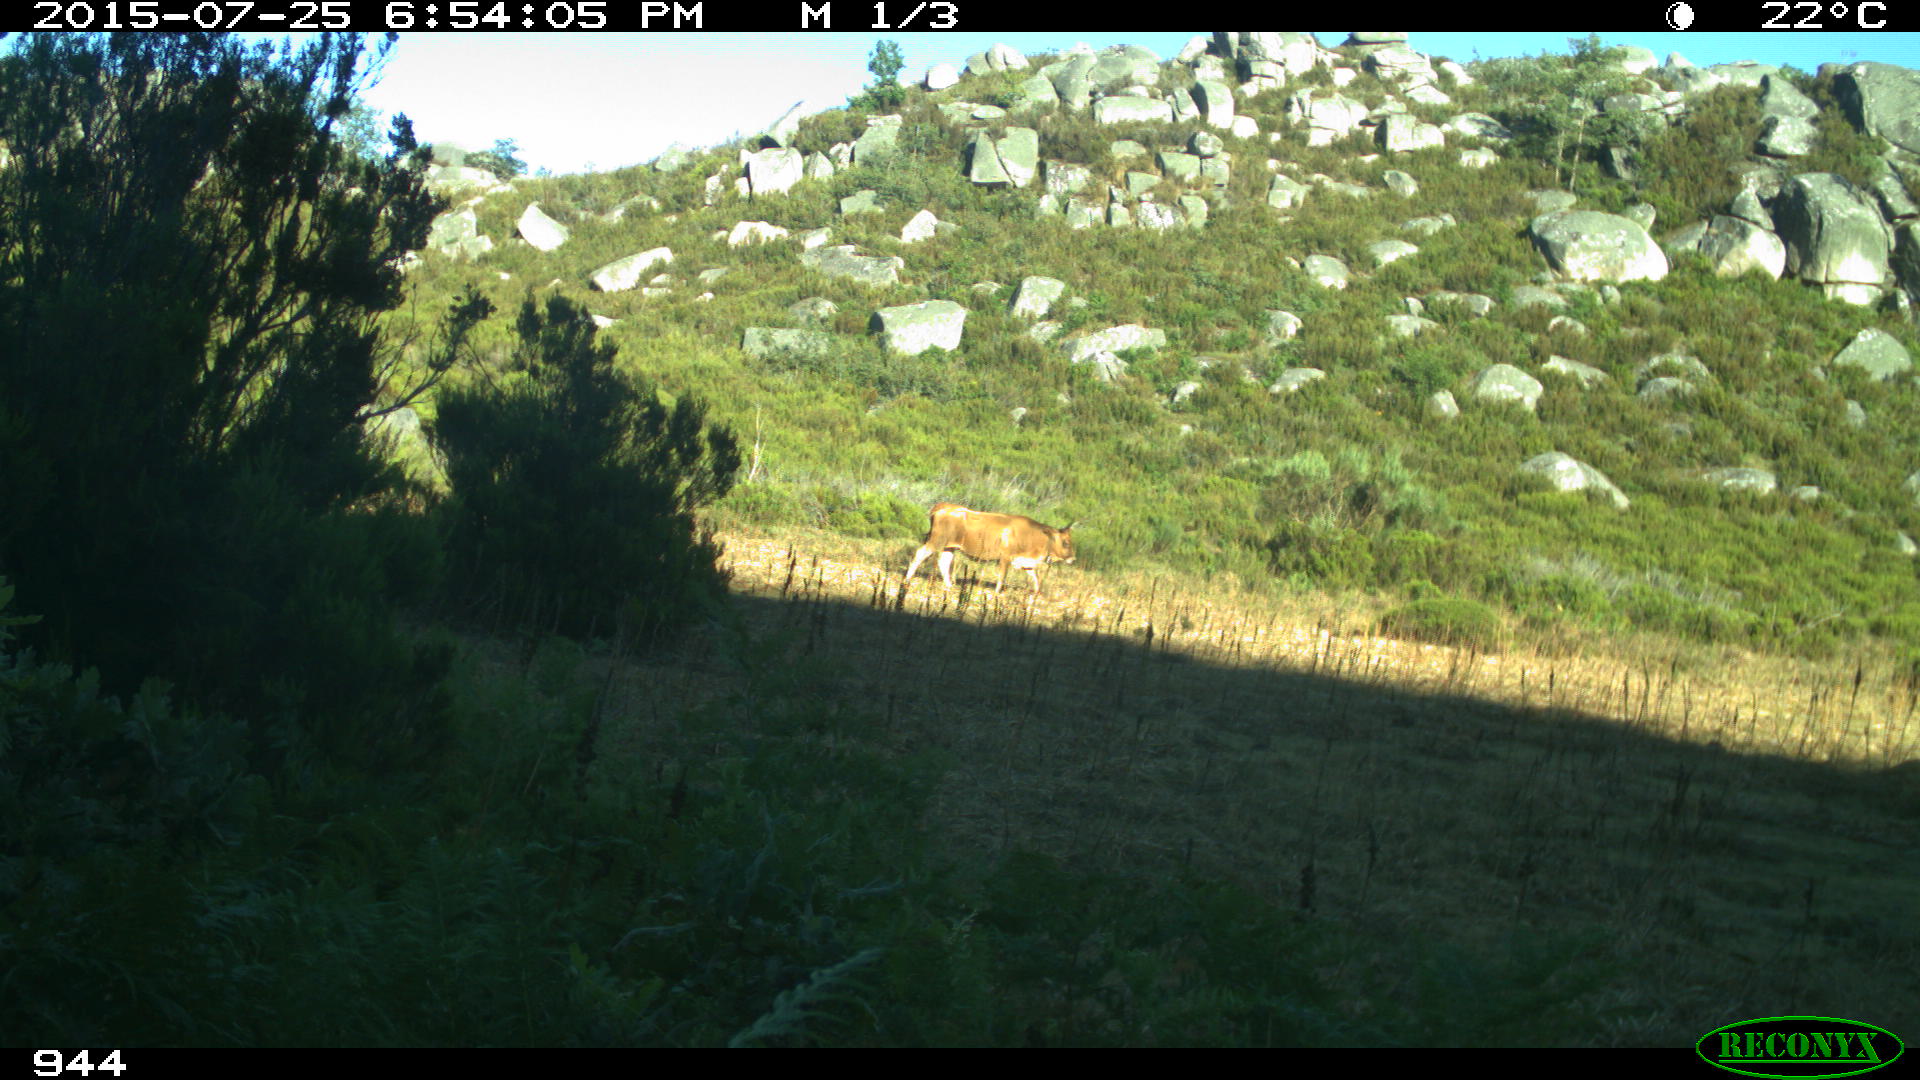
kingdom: Animalia
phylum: Chordata
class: Mammalia
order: Artiodactyla
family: Bovidae
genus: Bos
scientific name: Bos taurus
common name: Domesticated cattle
